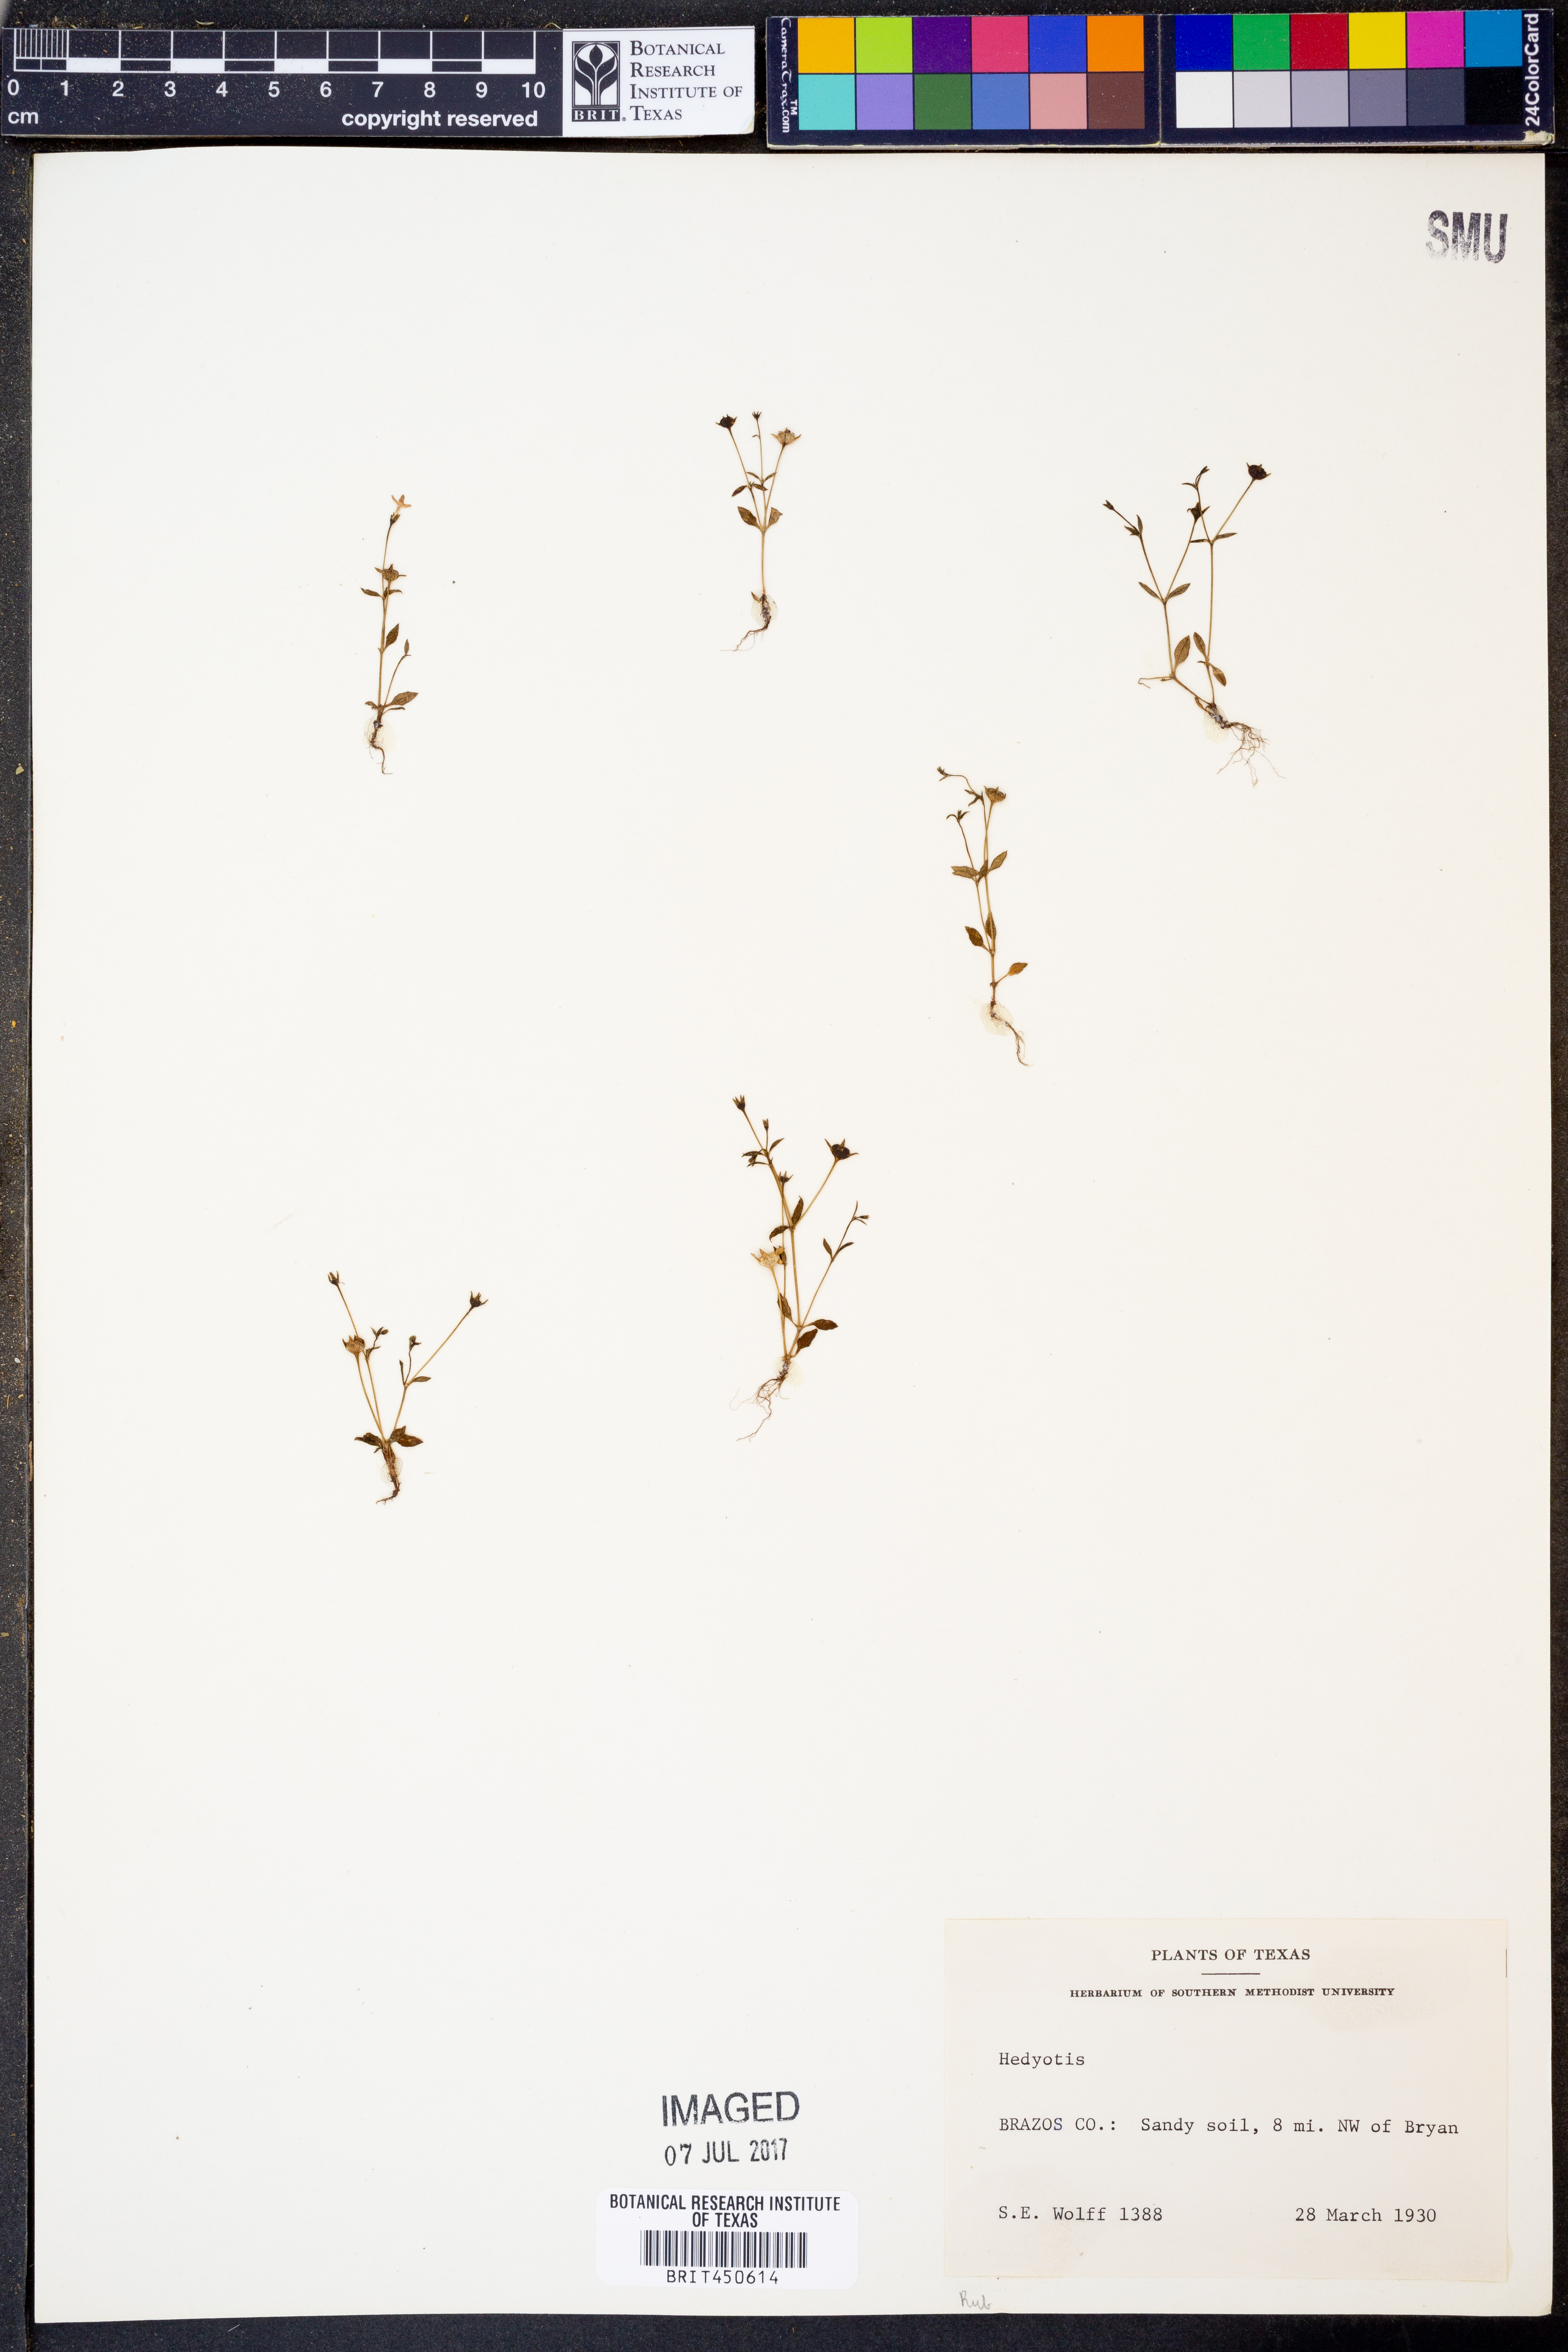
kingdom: Plantae
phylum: Tracheophyta
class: Magnoliopsida
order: Gentianales
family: Rubiaceae
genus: Hedyotis
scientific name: Hedyotis
